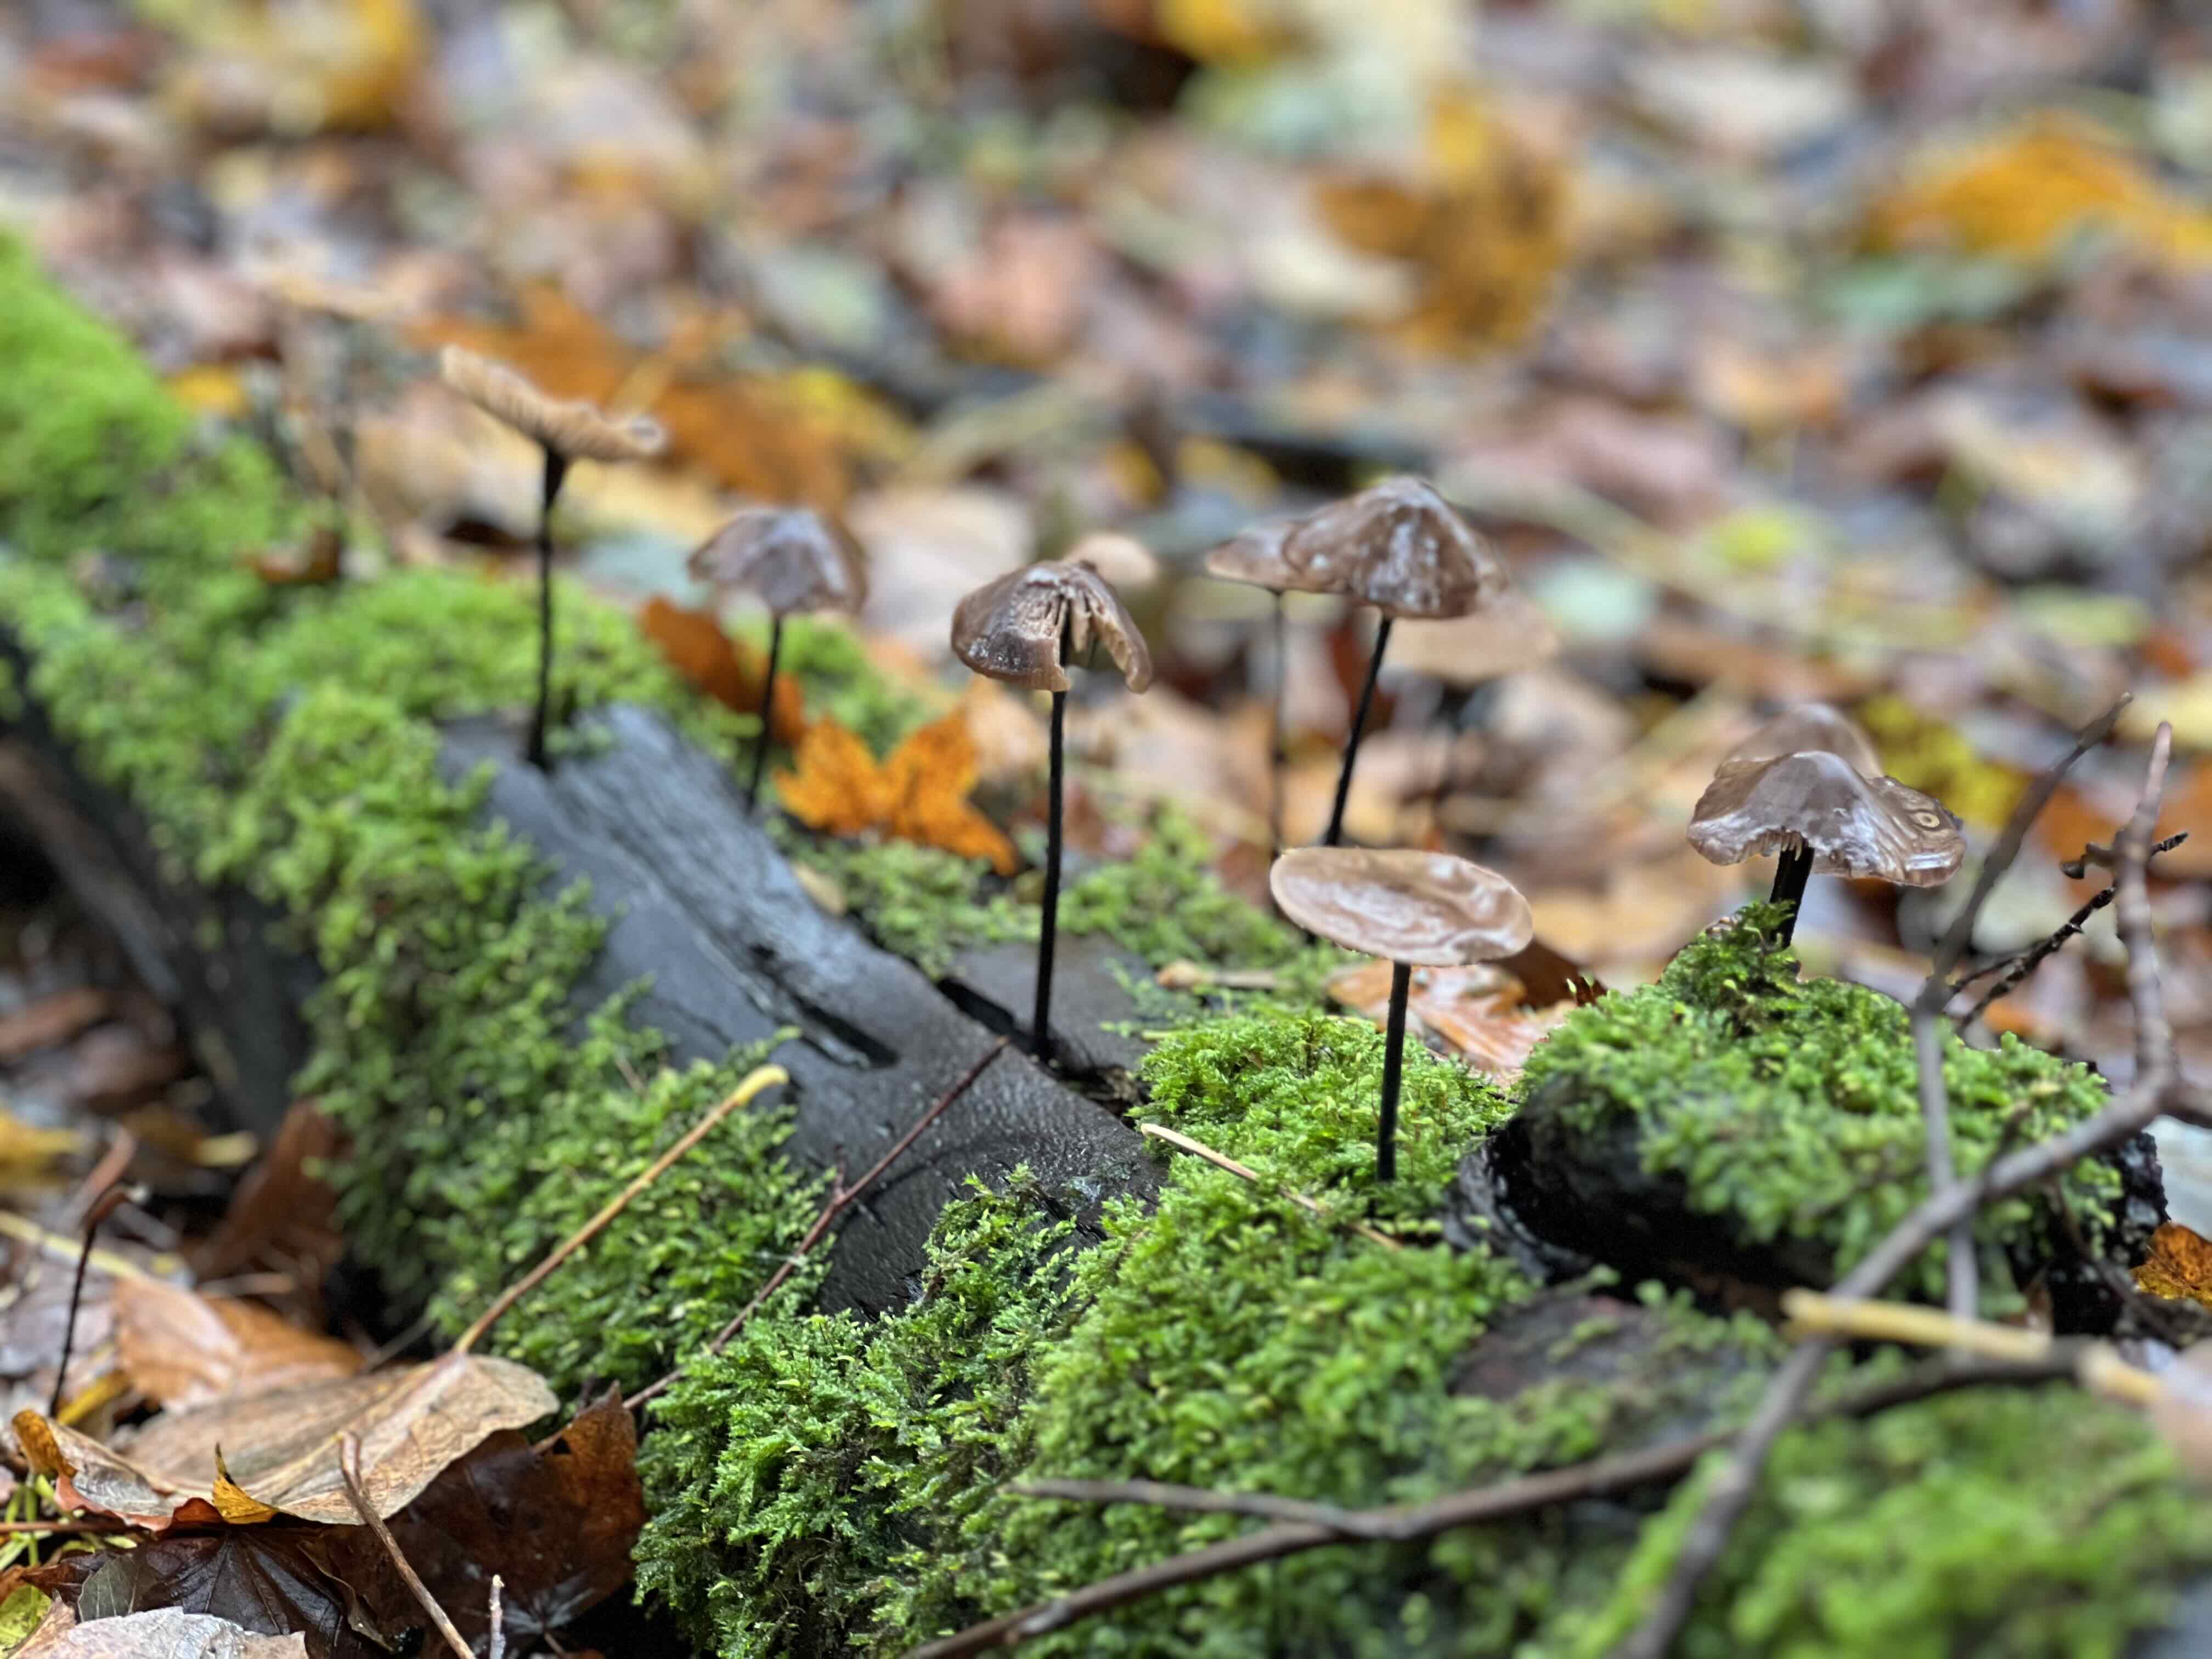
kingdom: Fungi
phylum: Basidiomycota
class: Agaricomycetes
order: Agaricales
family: Omphalotaceae
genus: Mycetinis
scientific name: Mycetinis alliaceus
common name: stor løghat
